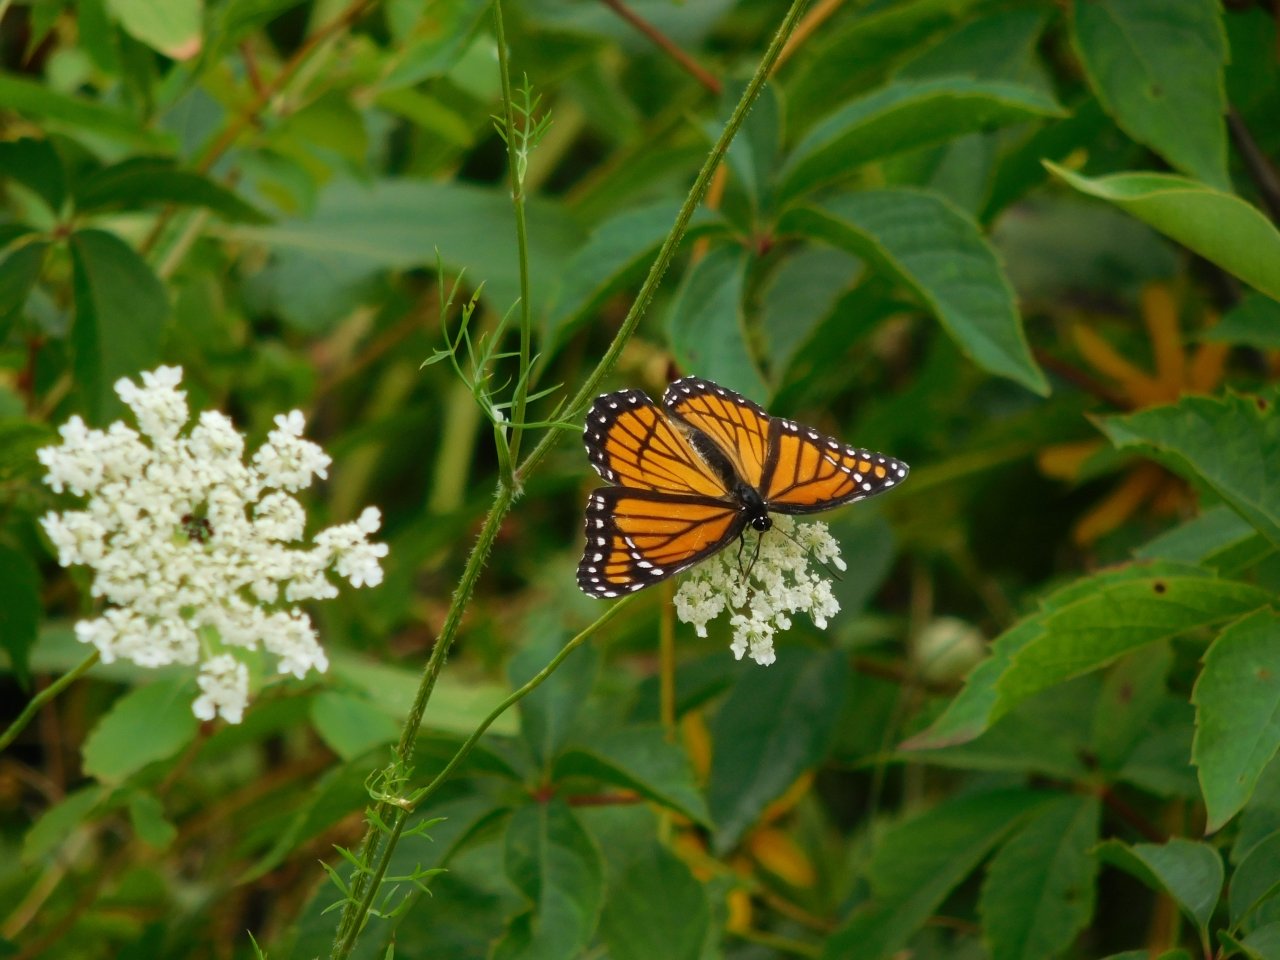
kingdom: Animalia
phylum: Arthropoda
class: Insecta
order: Lepidoptera
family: Nymphalidae
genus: Limenitis
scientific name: Limenitis archippus
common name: Viceroy
